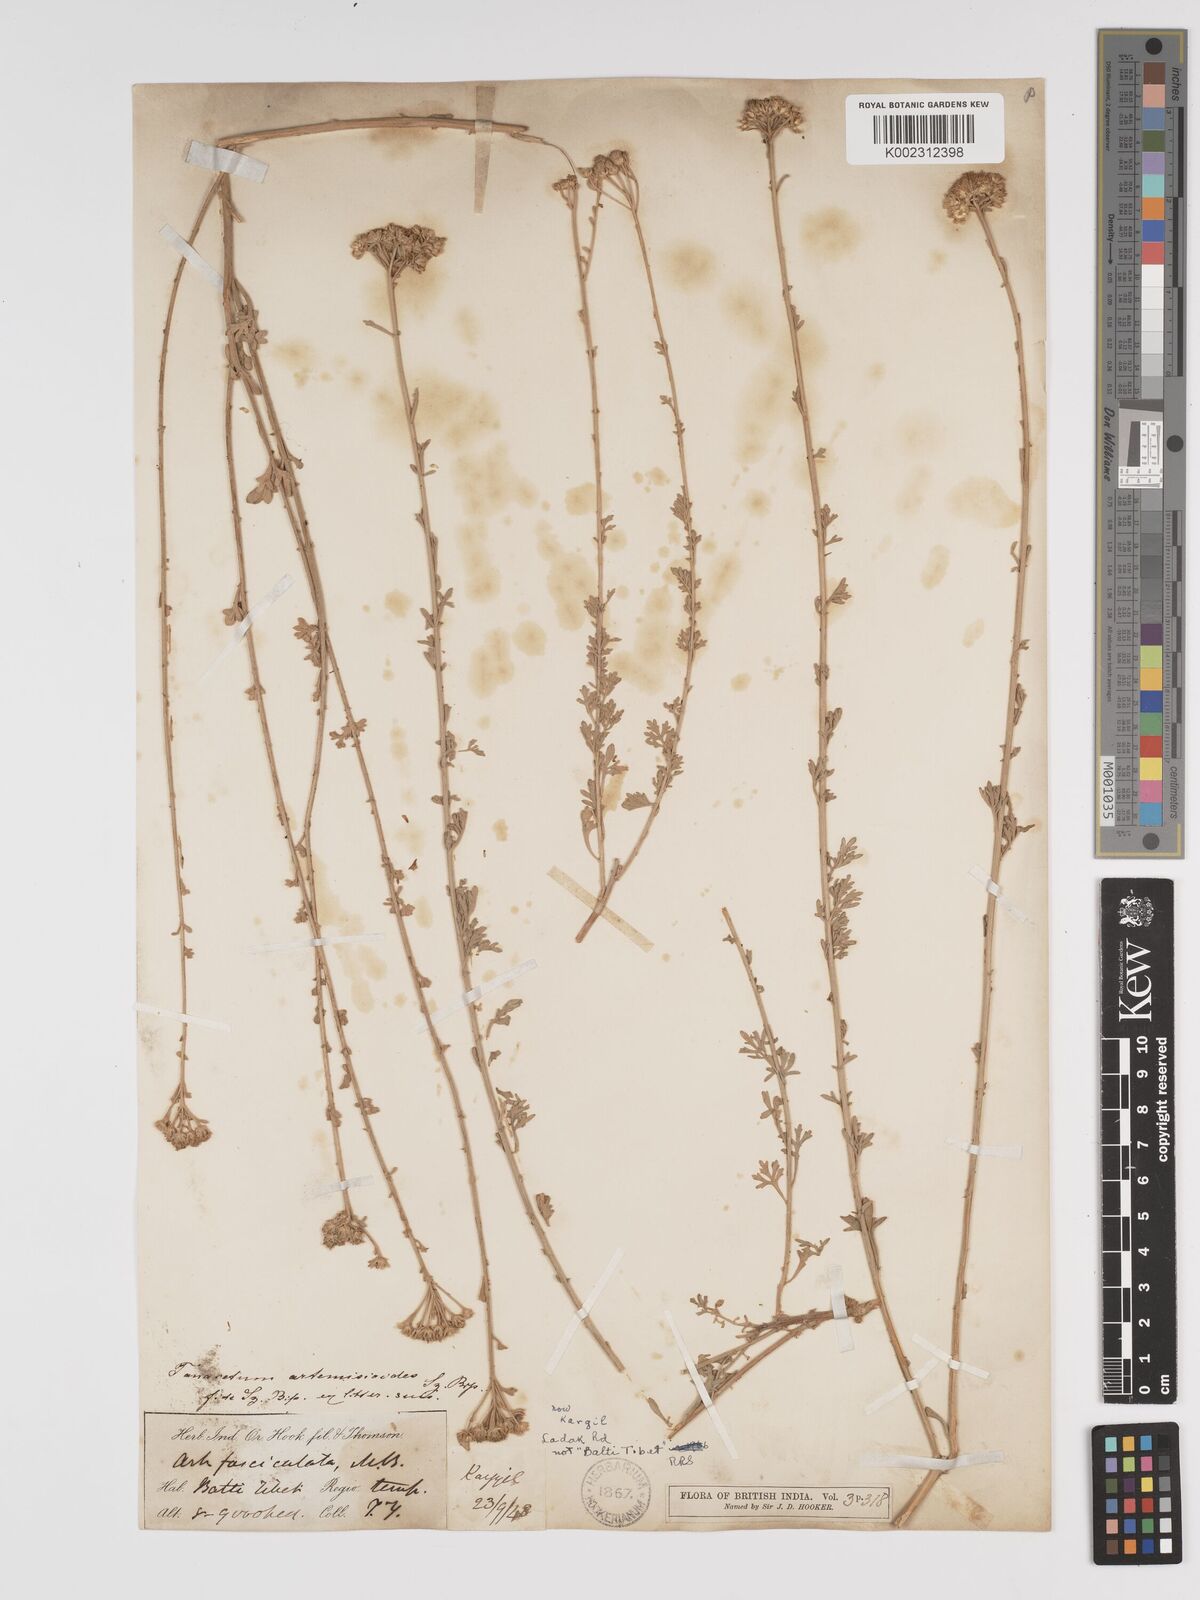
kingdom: Plantae
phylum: Tracheophyta
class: Magnoliopsida
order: Asterales
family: Asteraceae
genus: Tanacetum
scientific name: Tanacetum artemisioides
